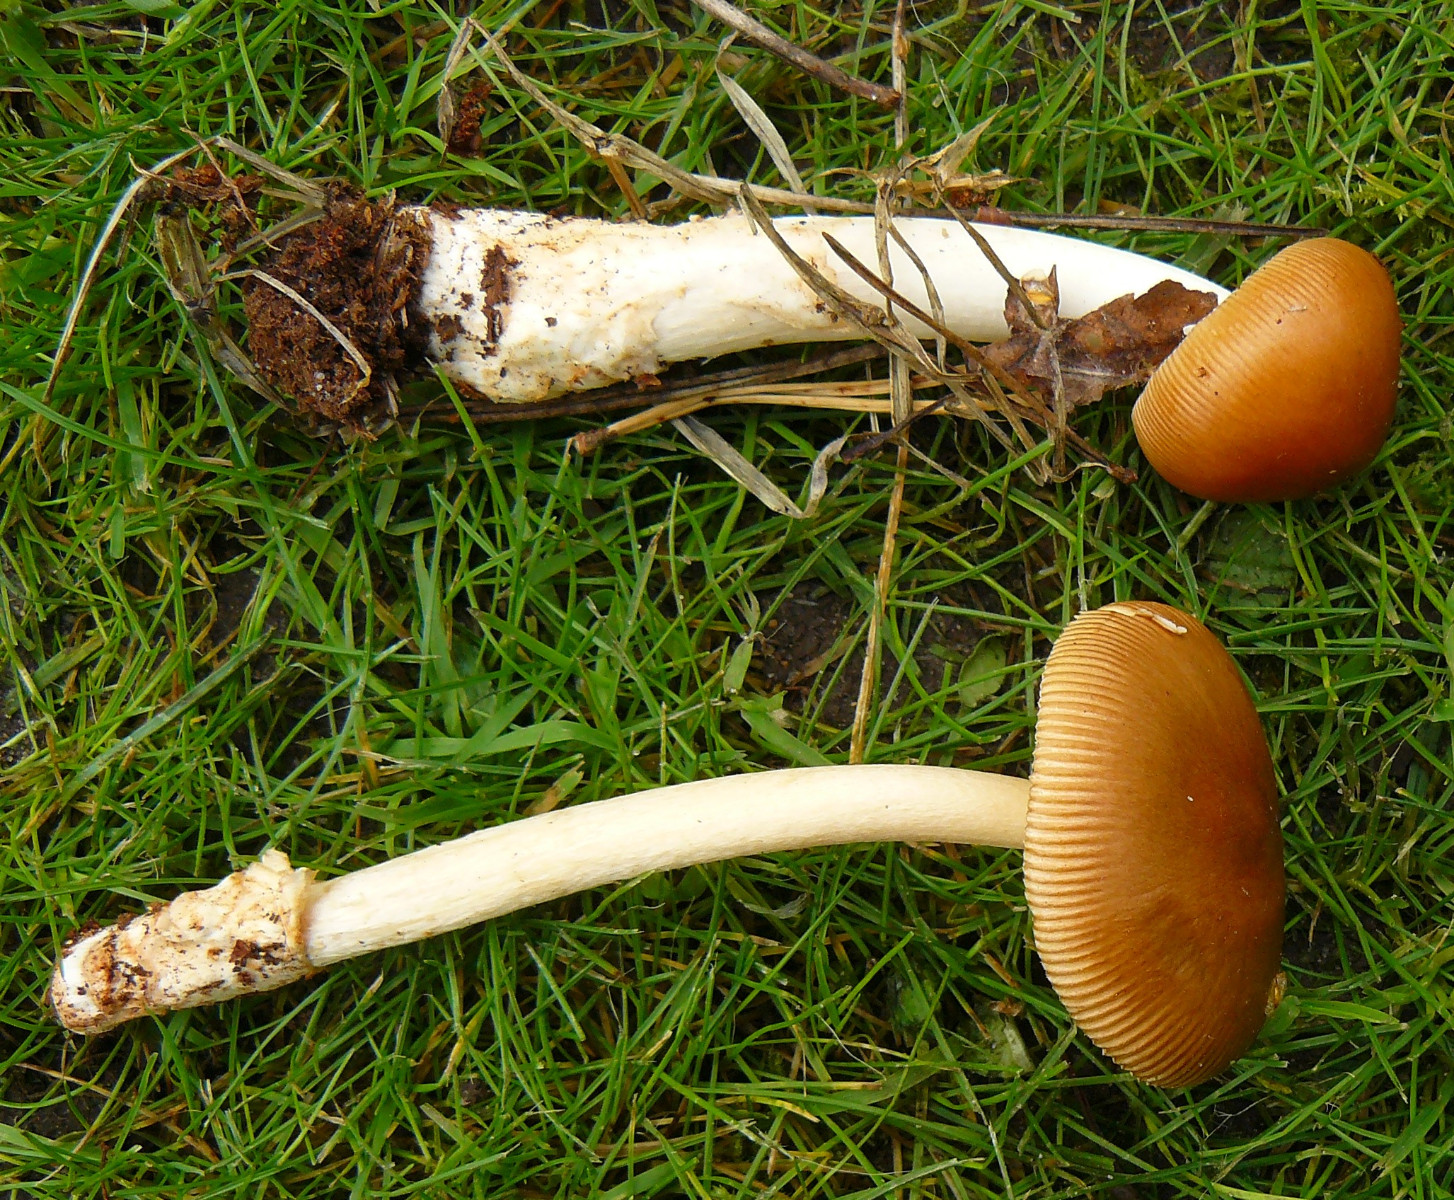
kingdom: Fungi
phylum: Basidiomycota
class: Agaricomycetes
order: Agaricales
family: Amanitaceae
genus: Amanita
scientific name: Amanita fulva
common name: brun kam-fluesvamp
